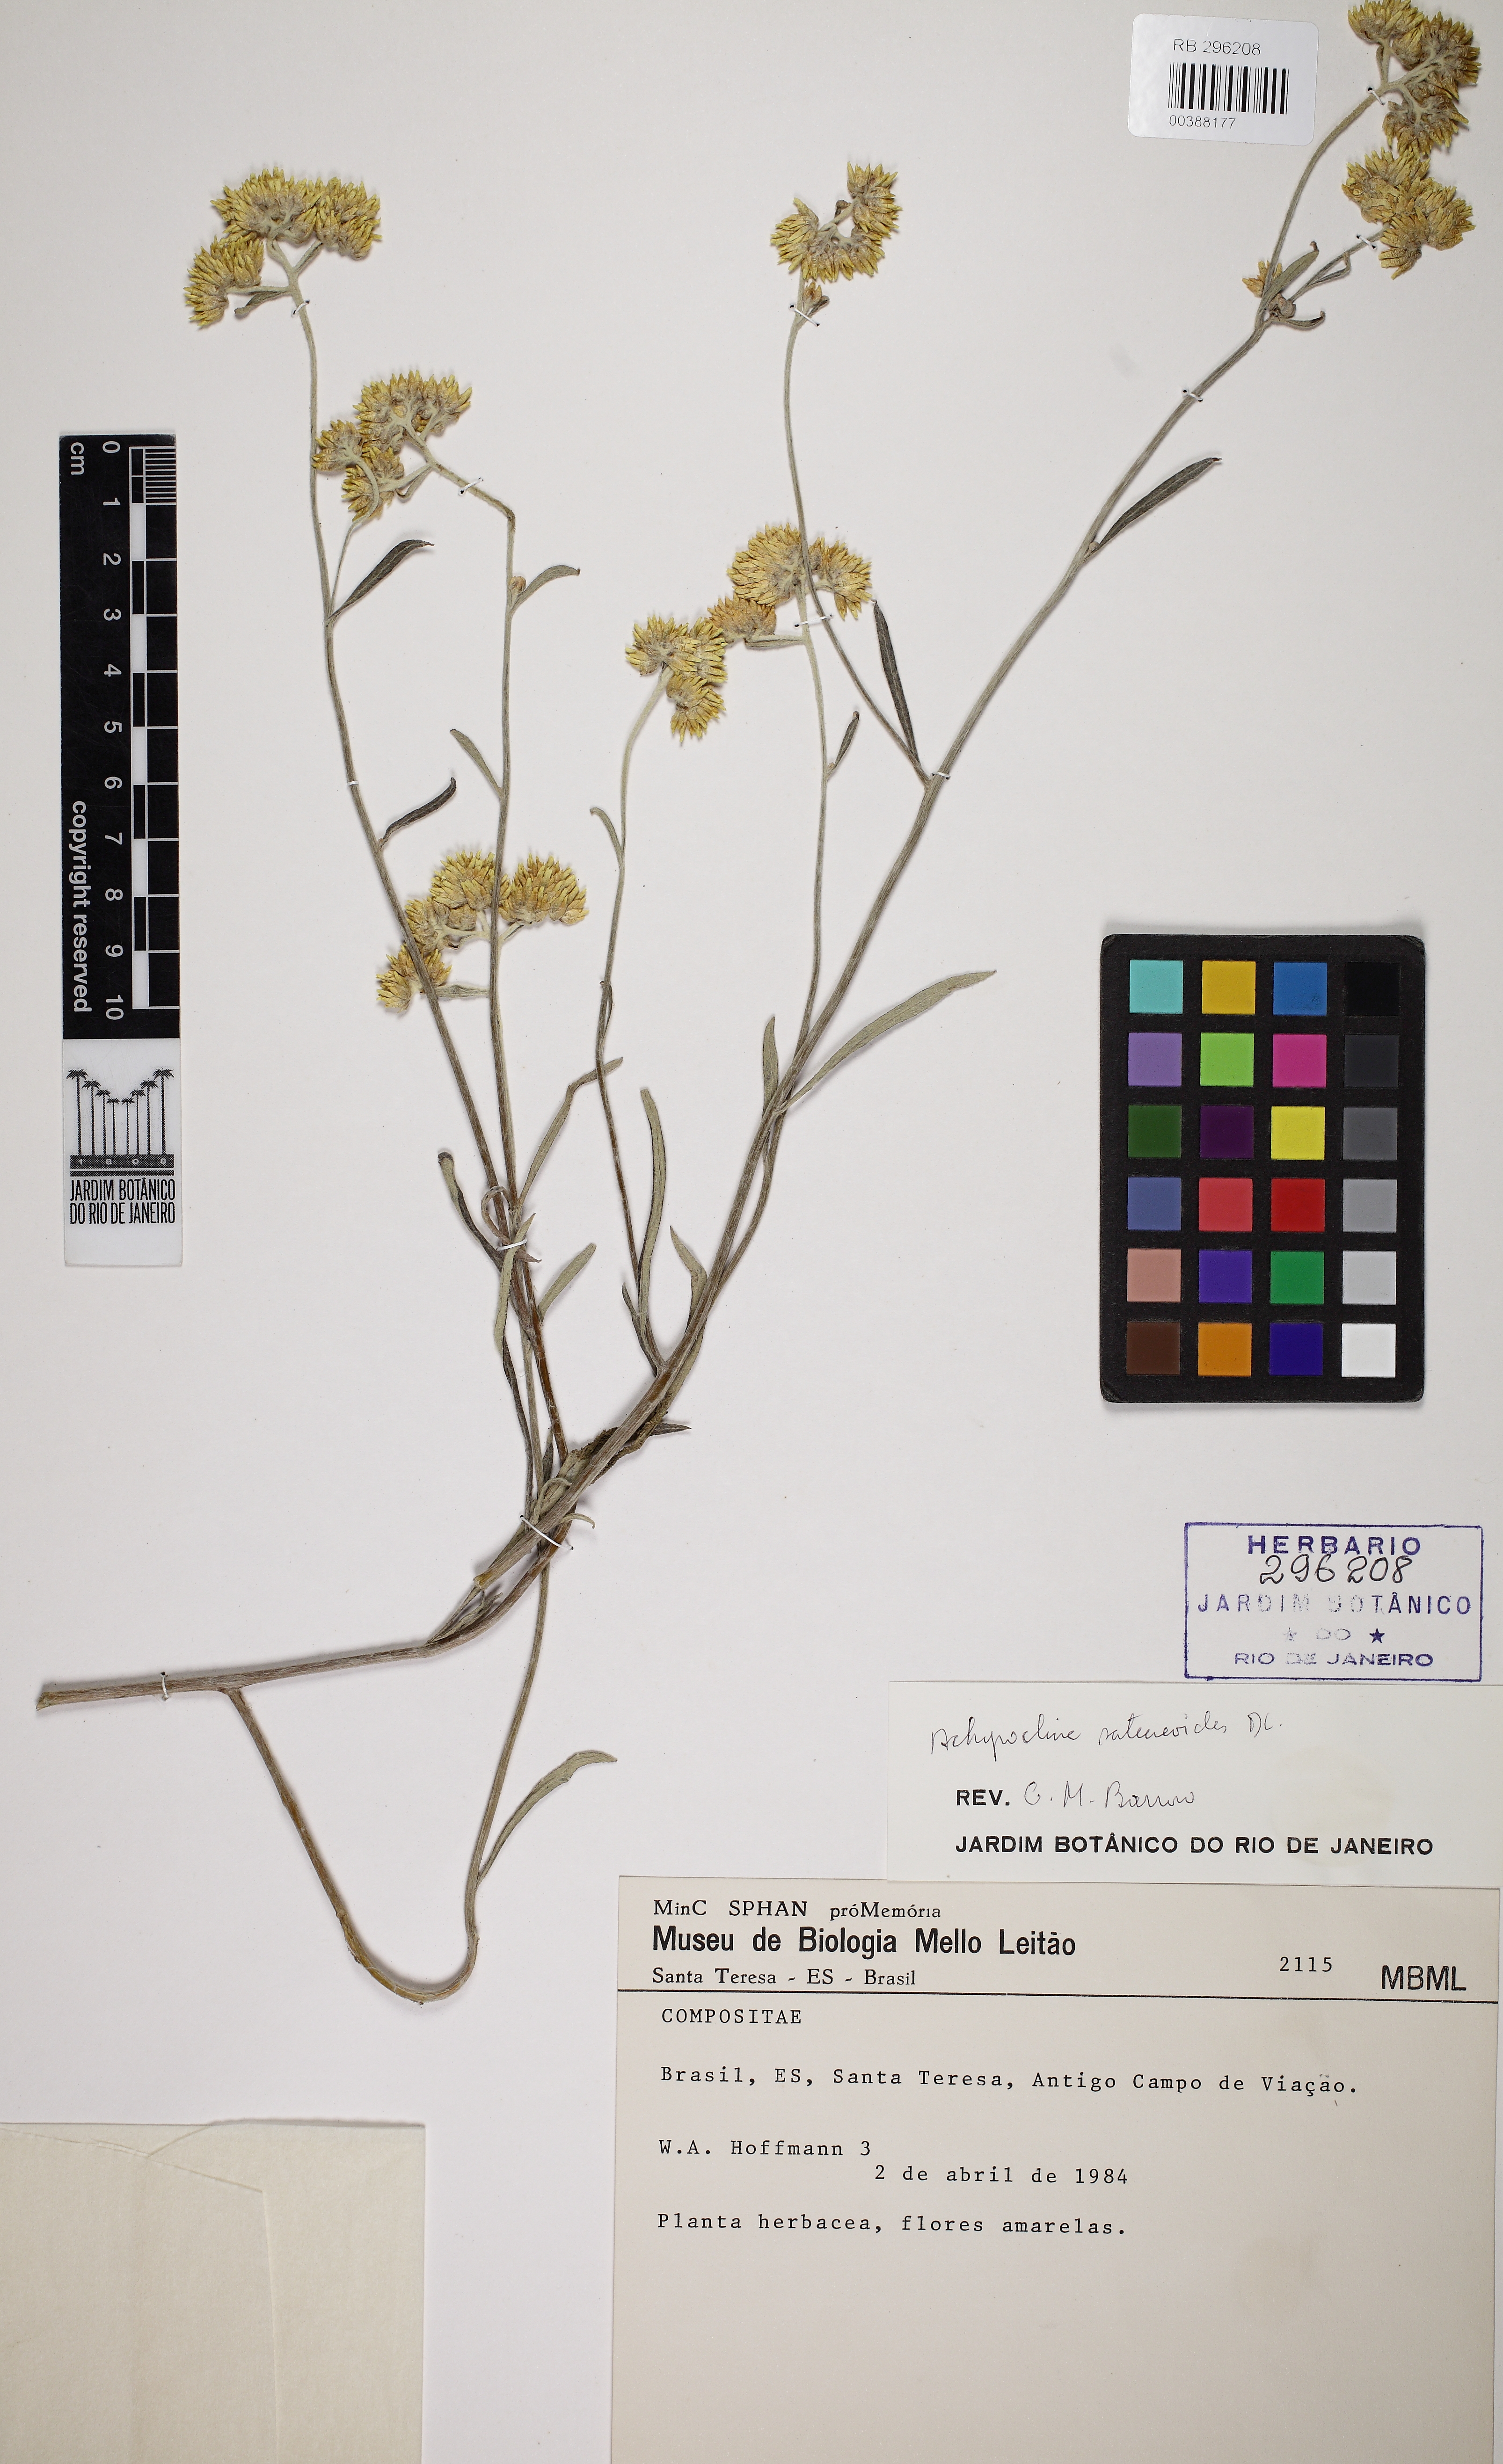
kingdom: Plantae
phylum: Tracheophyta
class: Magnoliopsida
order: Asterales
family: Asteraceae
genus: Achyrocline
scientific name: Achyrocline satureioides
